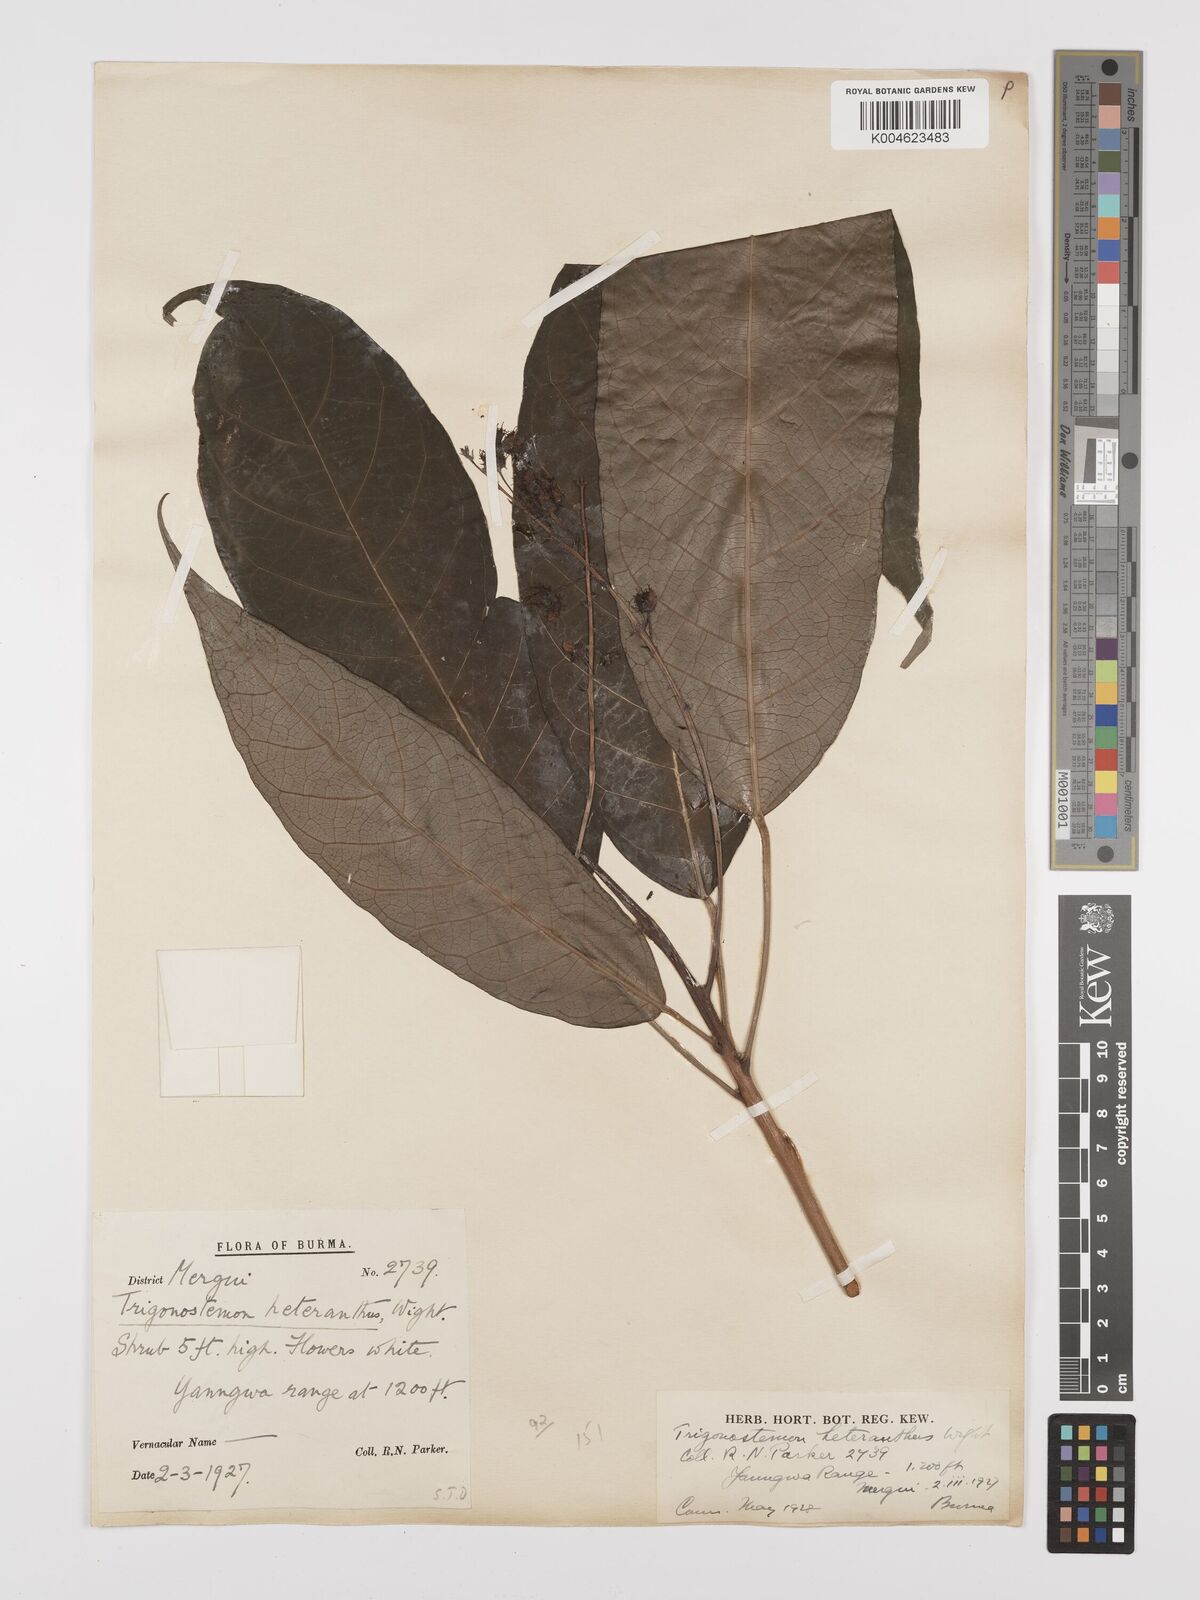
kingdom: Plantae
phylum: Tracheophyta
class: Magnoliopsida
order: Malpighiales
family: Euphorbiaceae
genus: Trigonostemon
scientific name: Trigonostemon heteranthus
